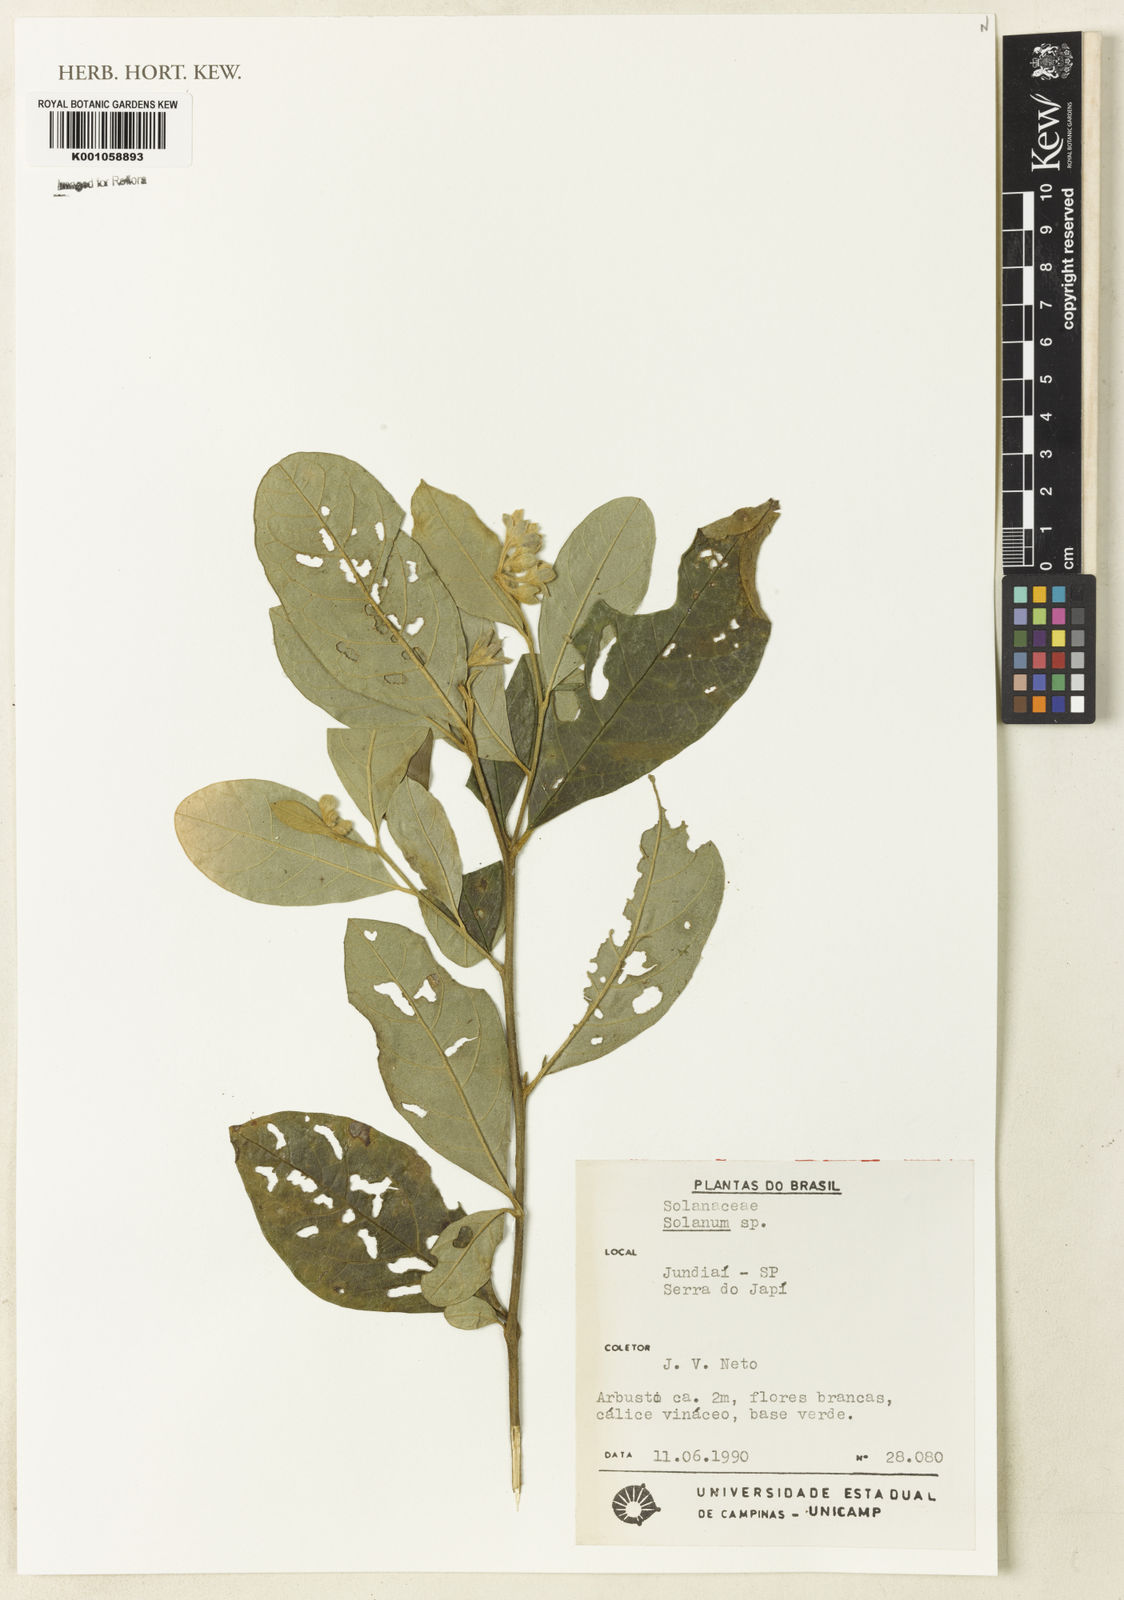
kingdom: Plantae
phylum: Tracheophyta
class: Magnoliopsida
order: Solanales
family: Solanaceae
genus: Solanum
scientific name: Solanum
